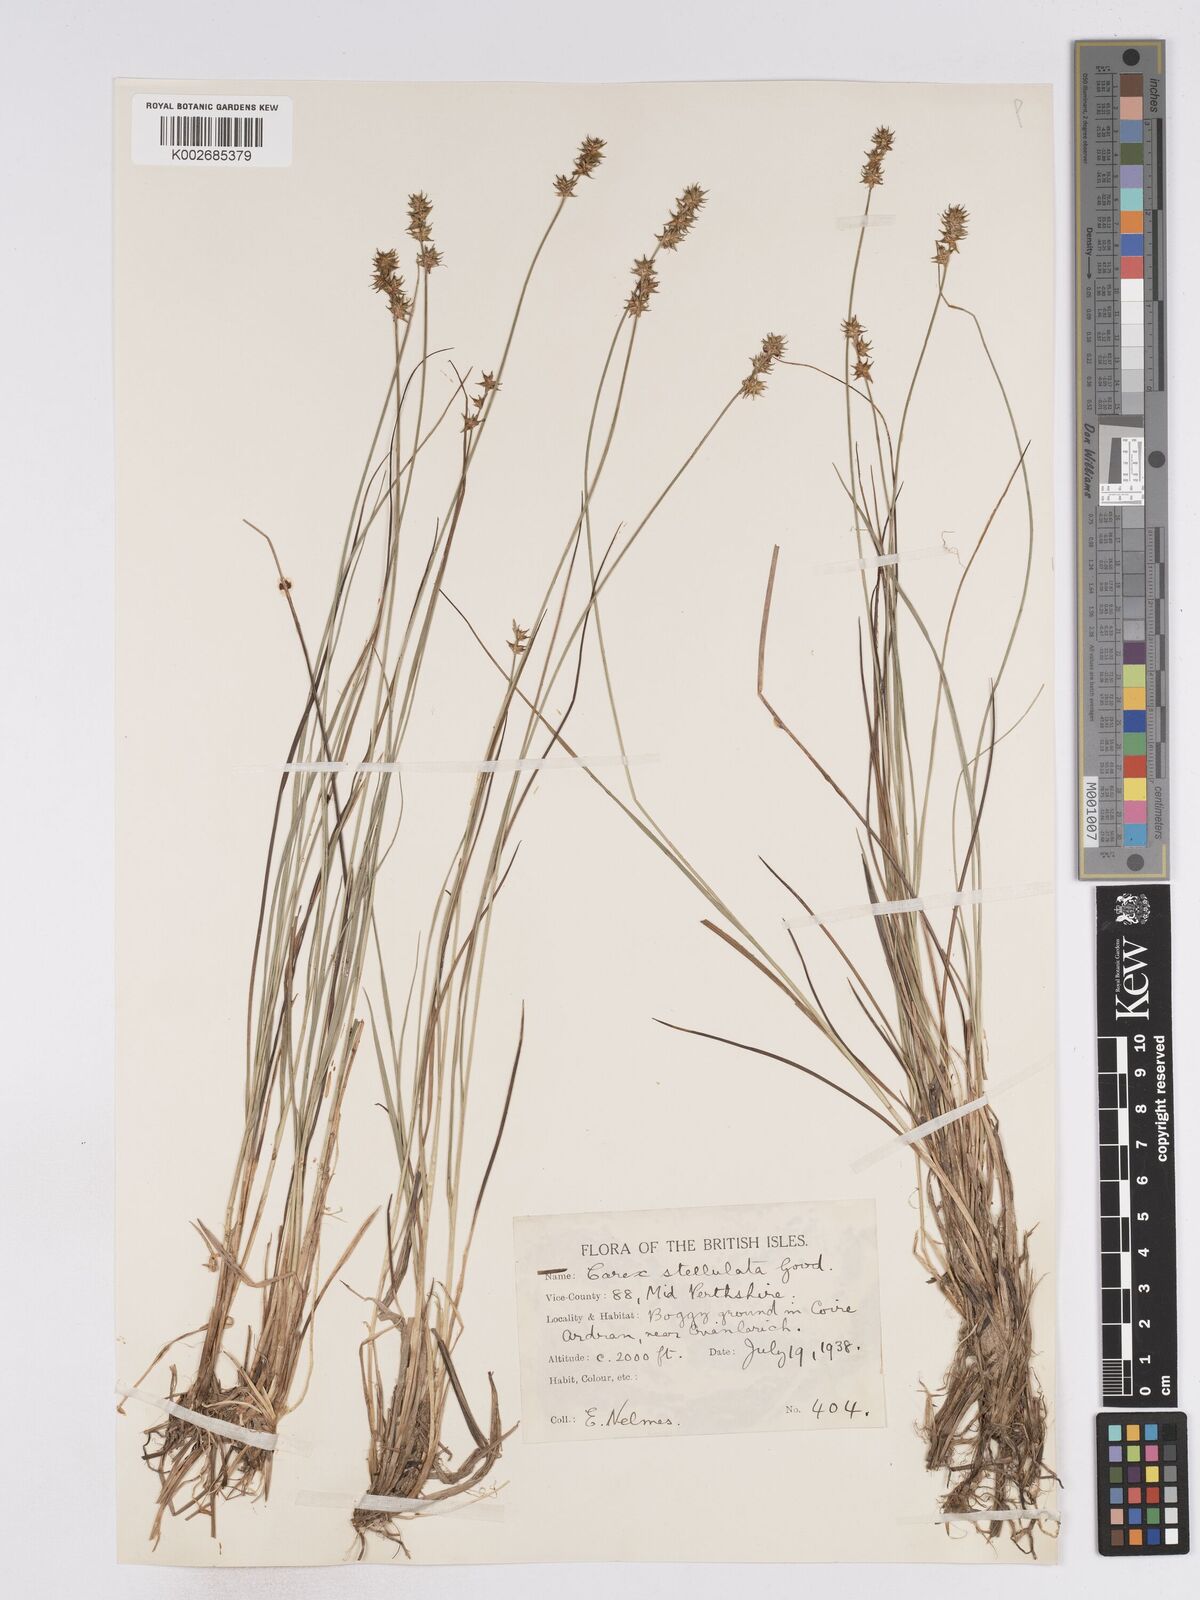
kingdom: Plantae
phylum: Tracheophyta
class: Liliopsida
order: Poales
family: Cyperaceae
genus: Carex
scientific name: Carex echinata
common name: Star sedge
